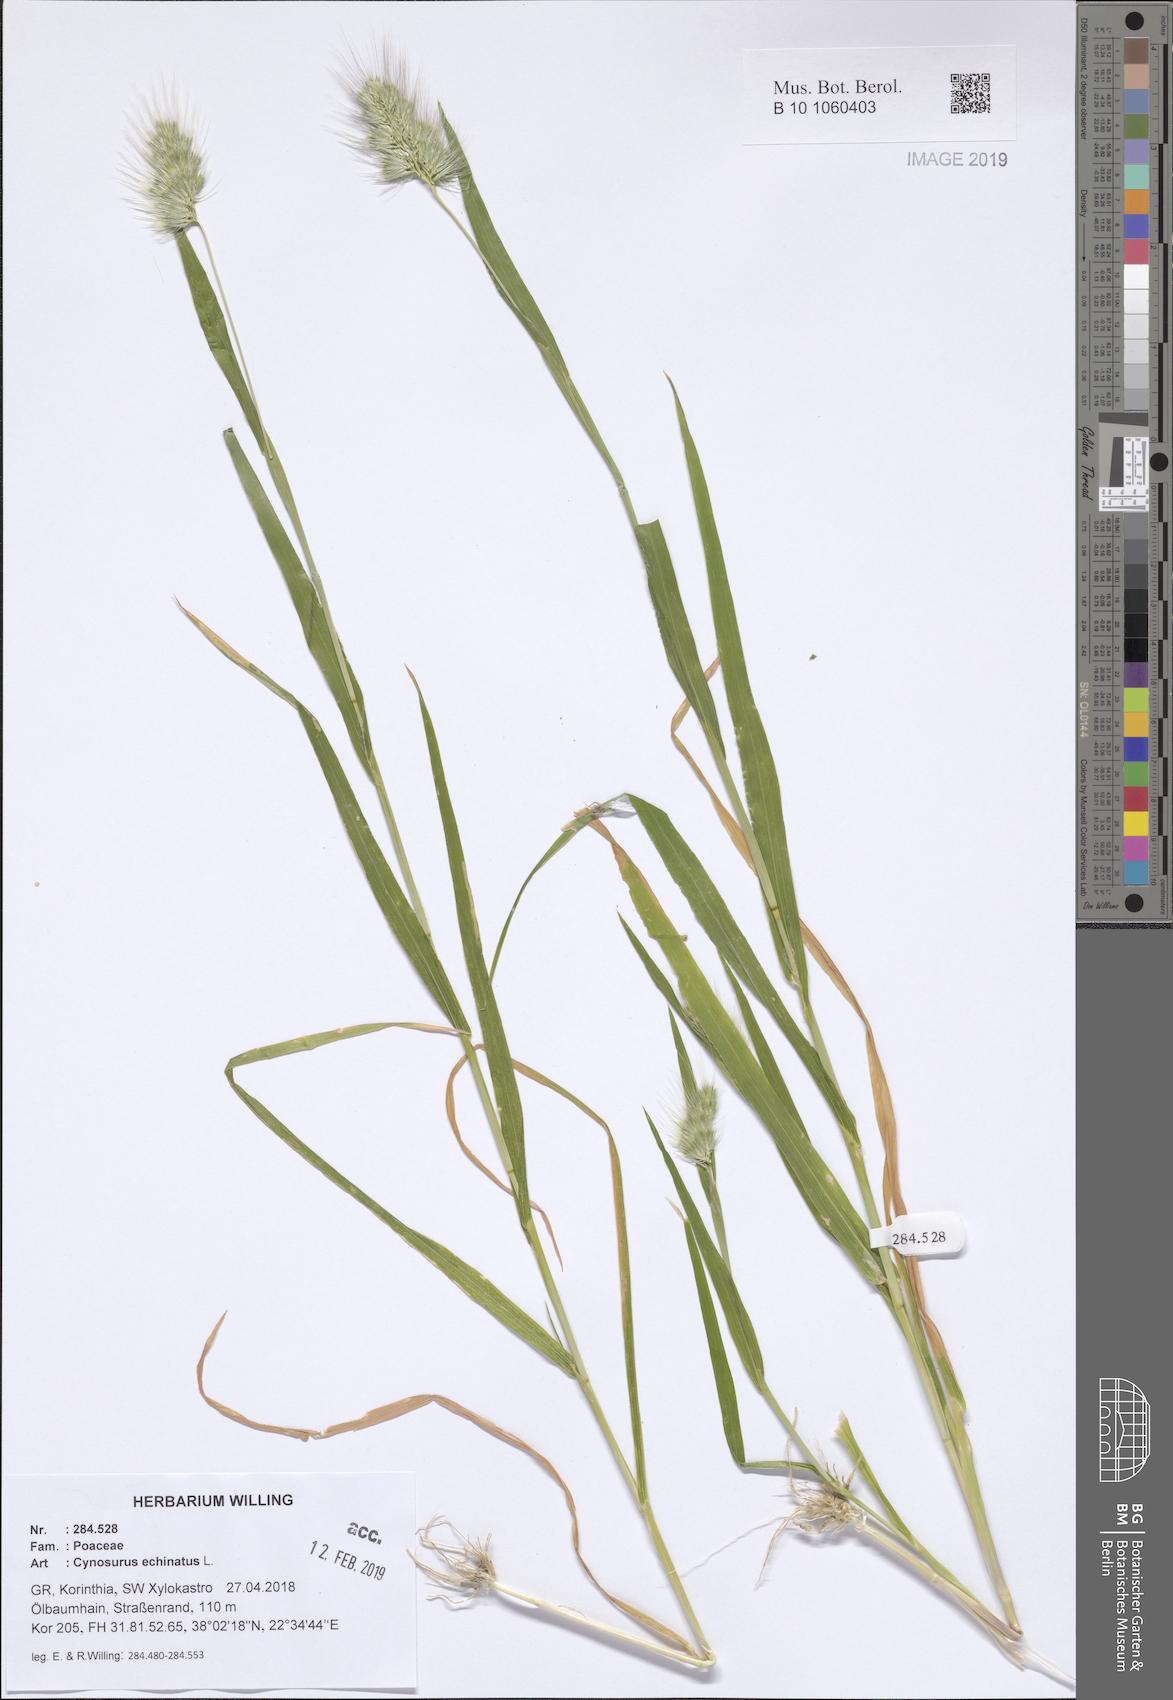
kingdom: Plantae
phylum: Tracheophyta
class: Liliopsida
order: Poales
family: Poaceae
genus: Cynosurus
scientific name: Cynosurus echinatus
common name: Rough dog's-tail
